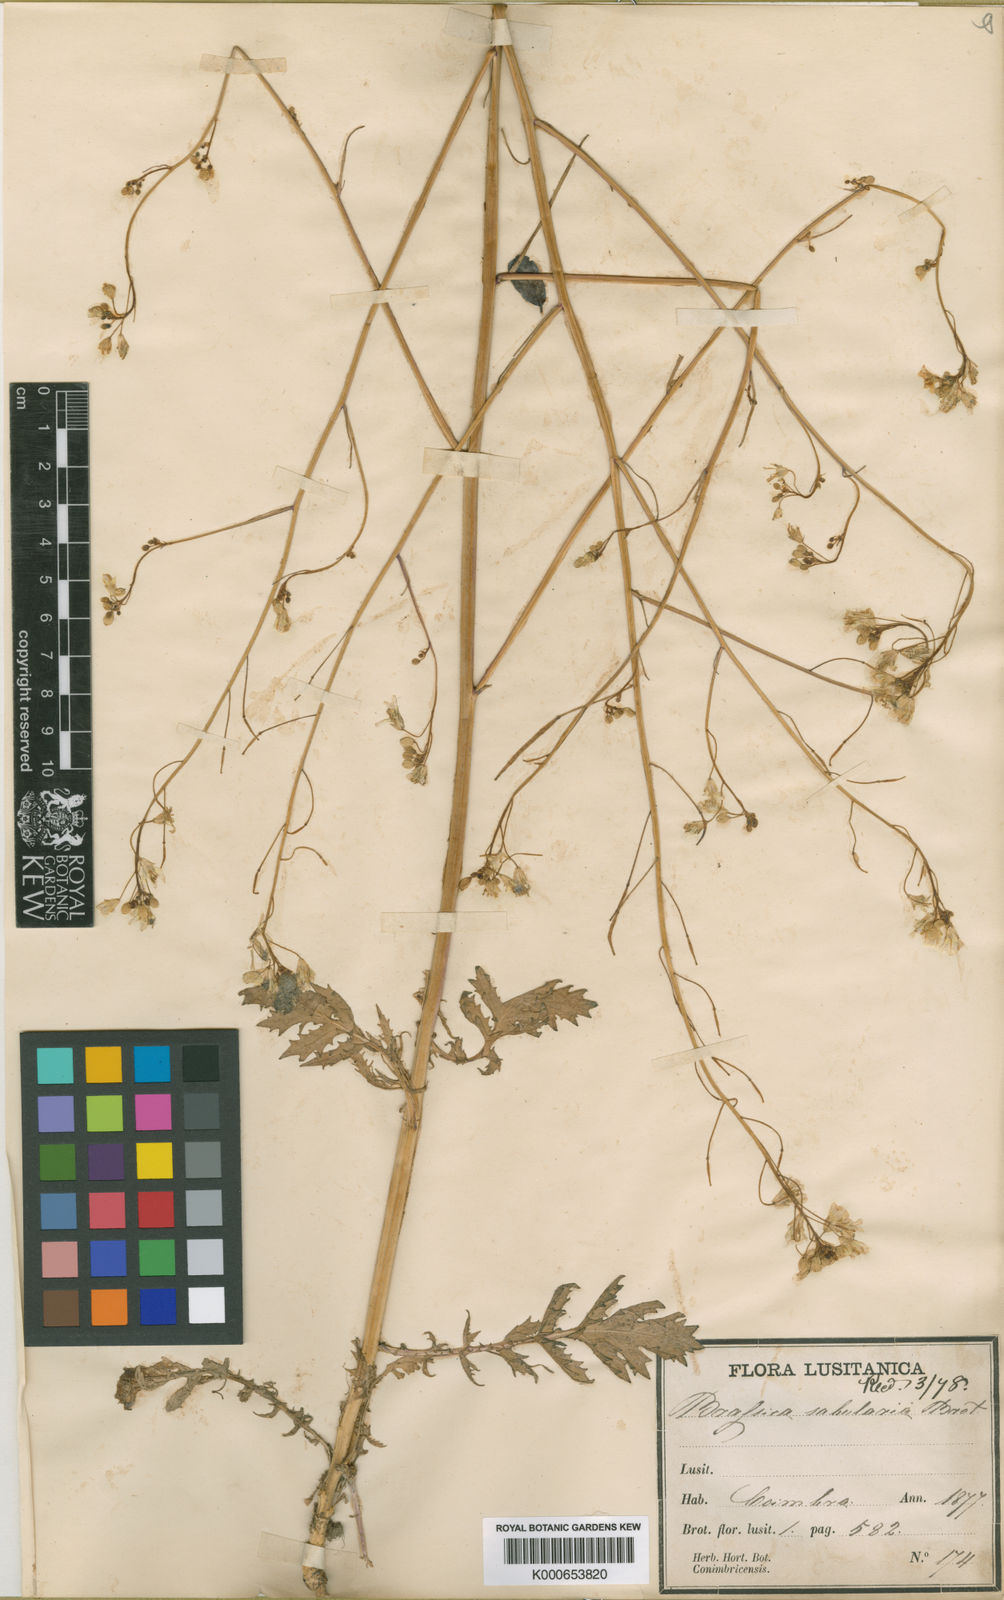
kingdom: Plantae
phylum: Tracheophyta
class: Magnoliopsida
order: Brassicales
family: Brassicaceae
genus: Brassica
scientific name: Brassica barrelieri
